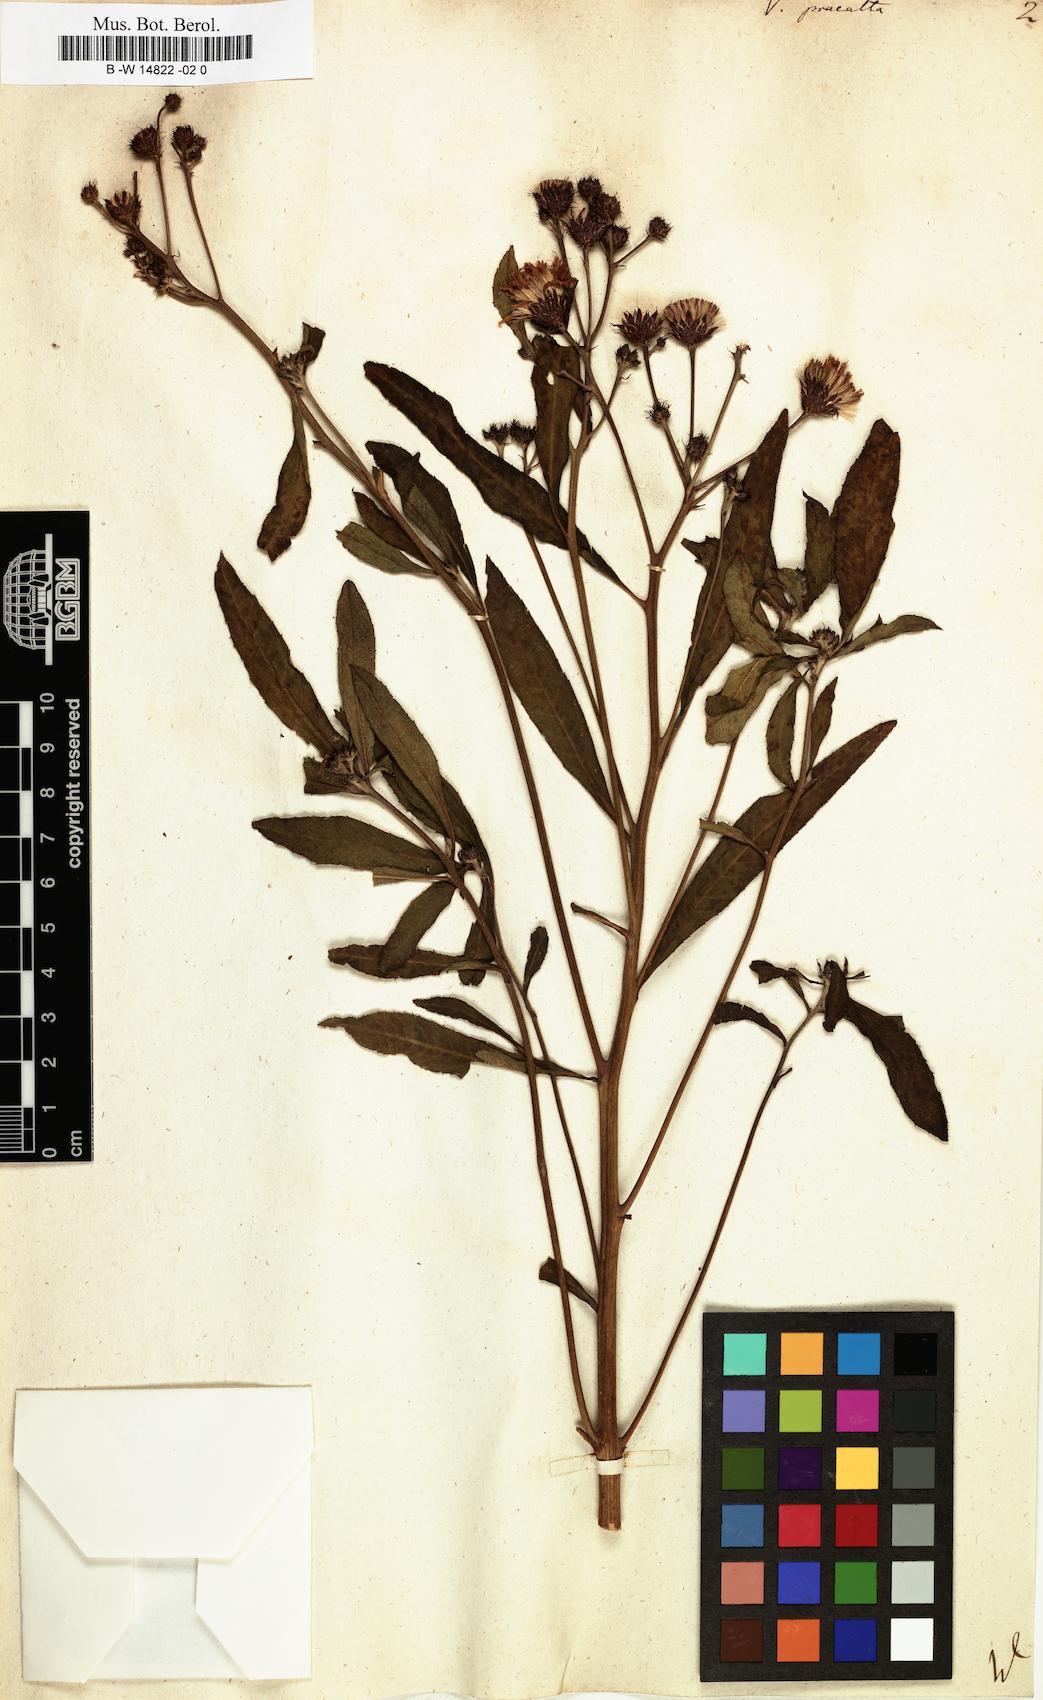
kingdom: Plantae
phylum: Tracheophyta
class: Magnoliopsida
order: Asterales
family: Asteraceae
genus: Vernonia
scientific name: Vernonia praealta
